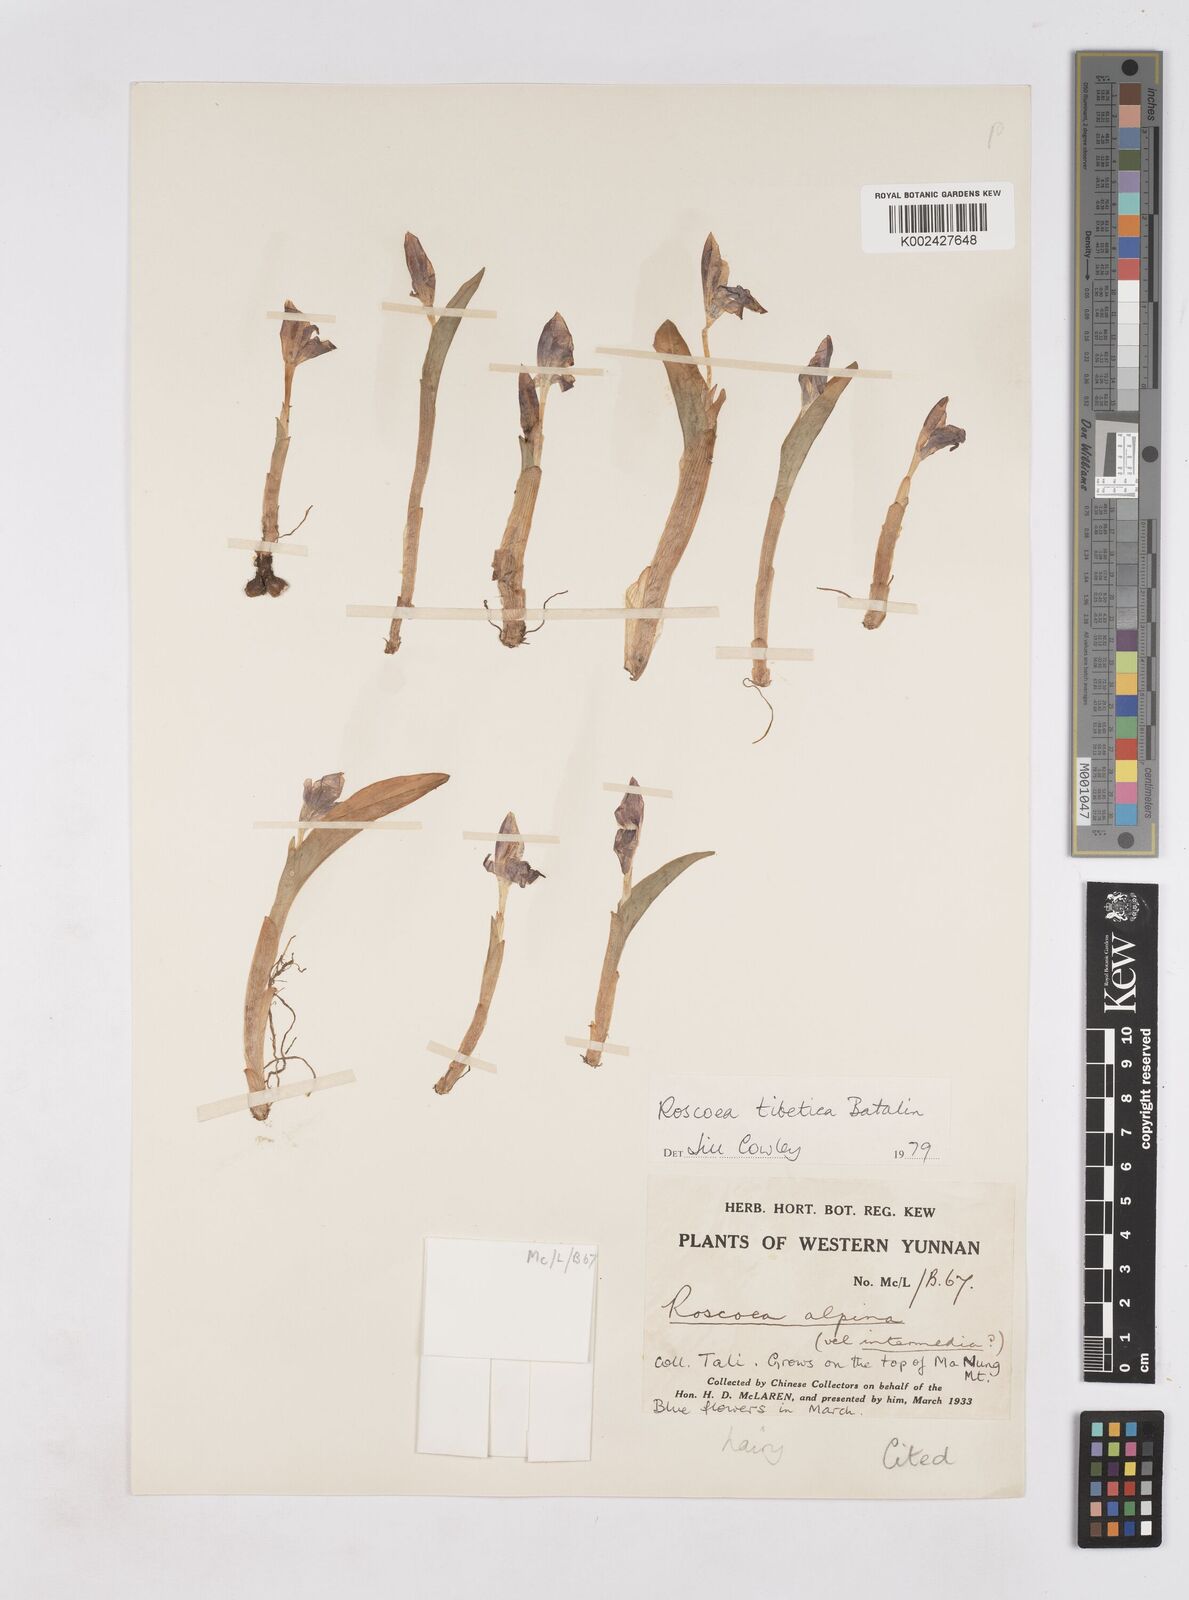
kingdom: Plantae
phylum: Tracheophyta
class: Liliopsida
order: Zingiberales
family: Zingiberaceae
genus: Roscoea
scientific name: Roscoea tibetica
